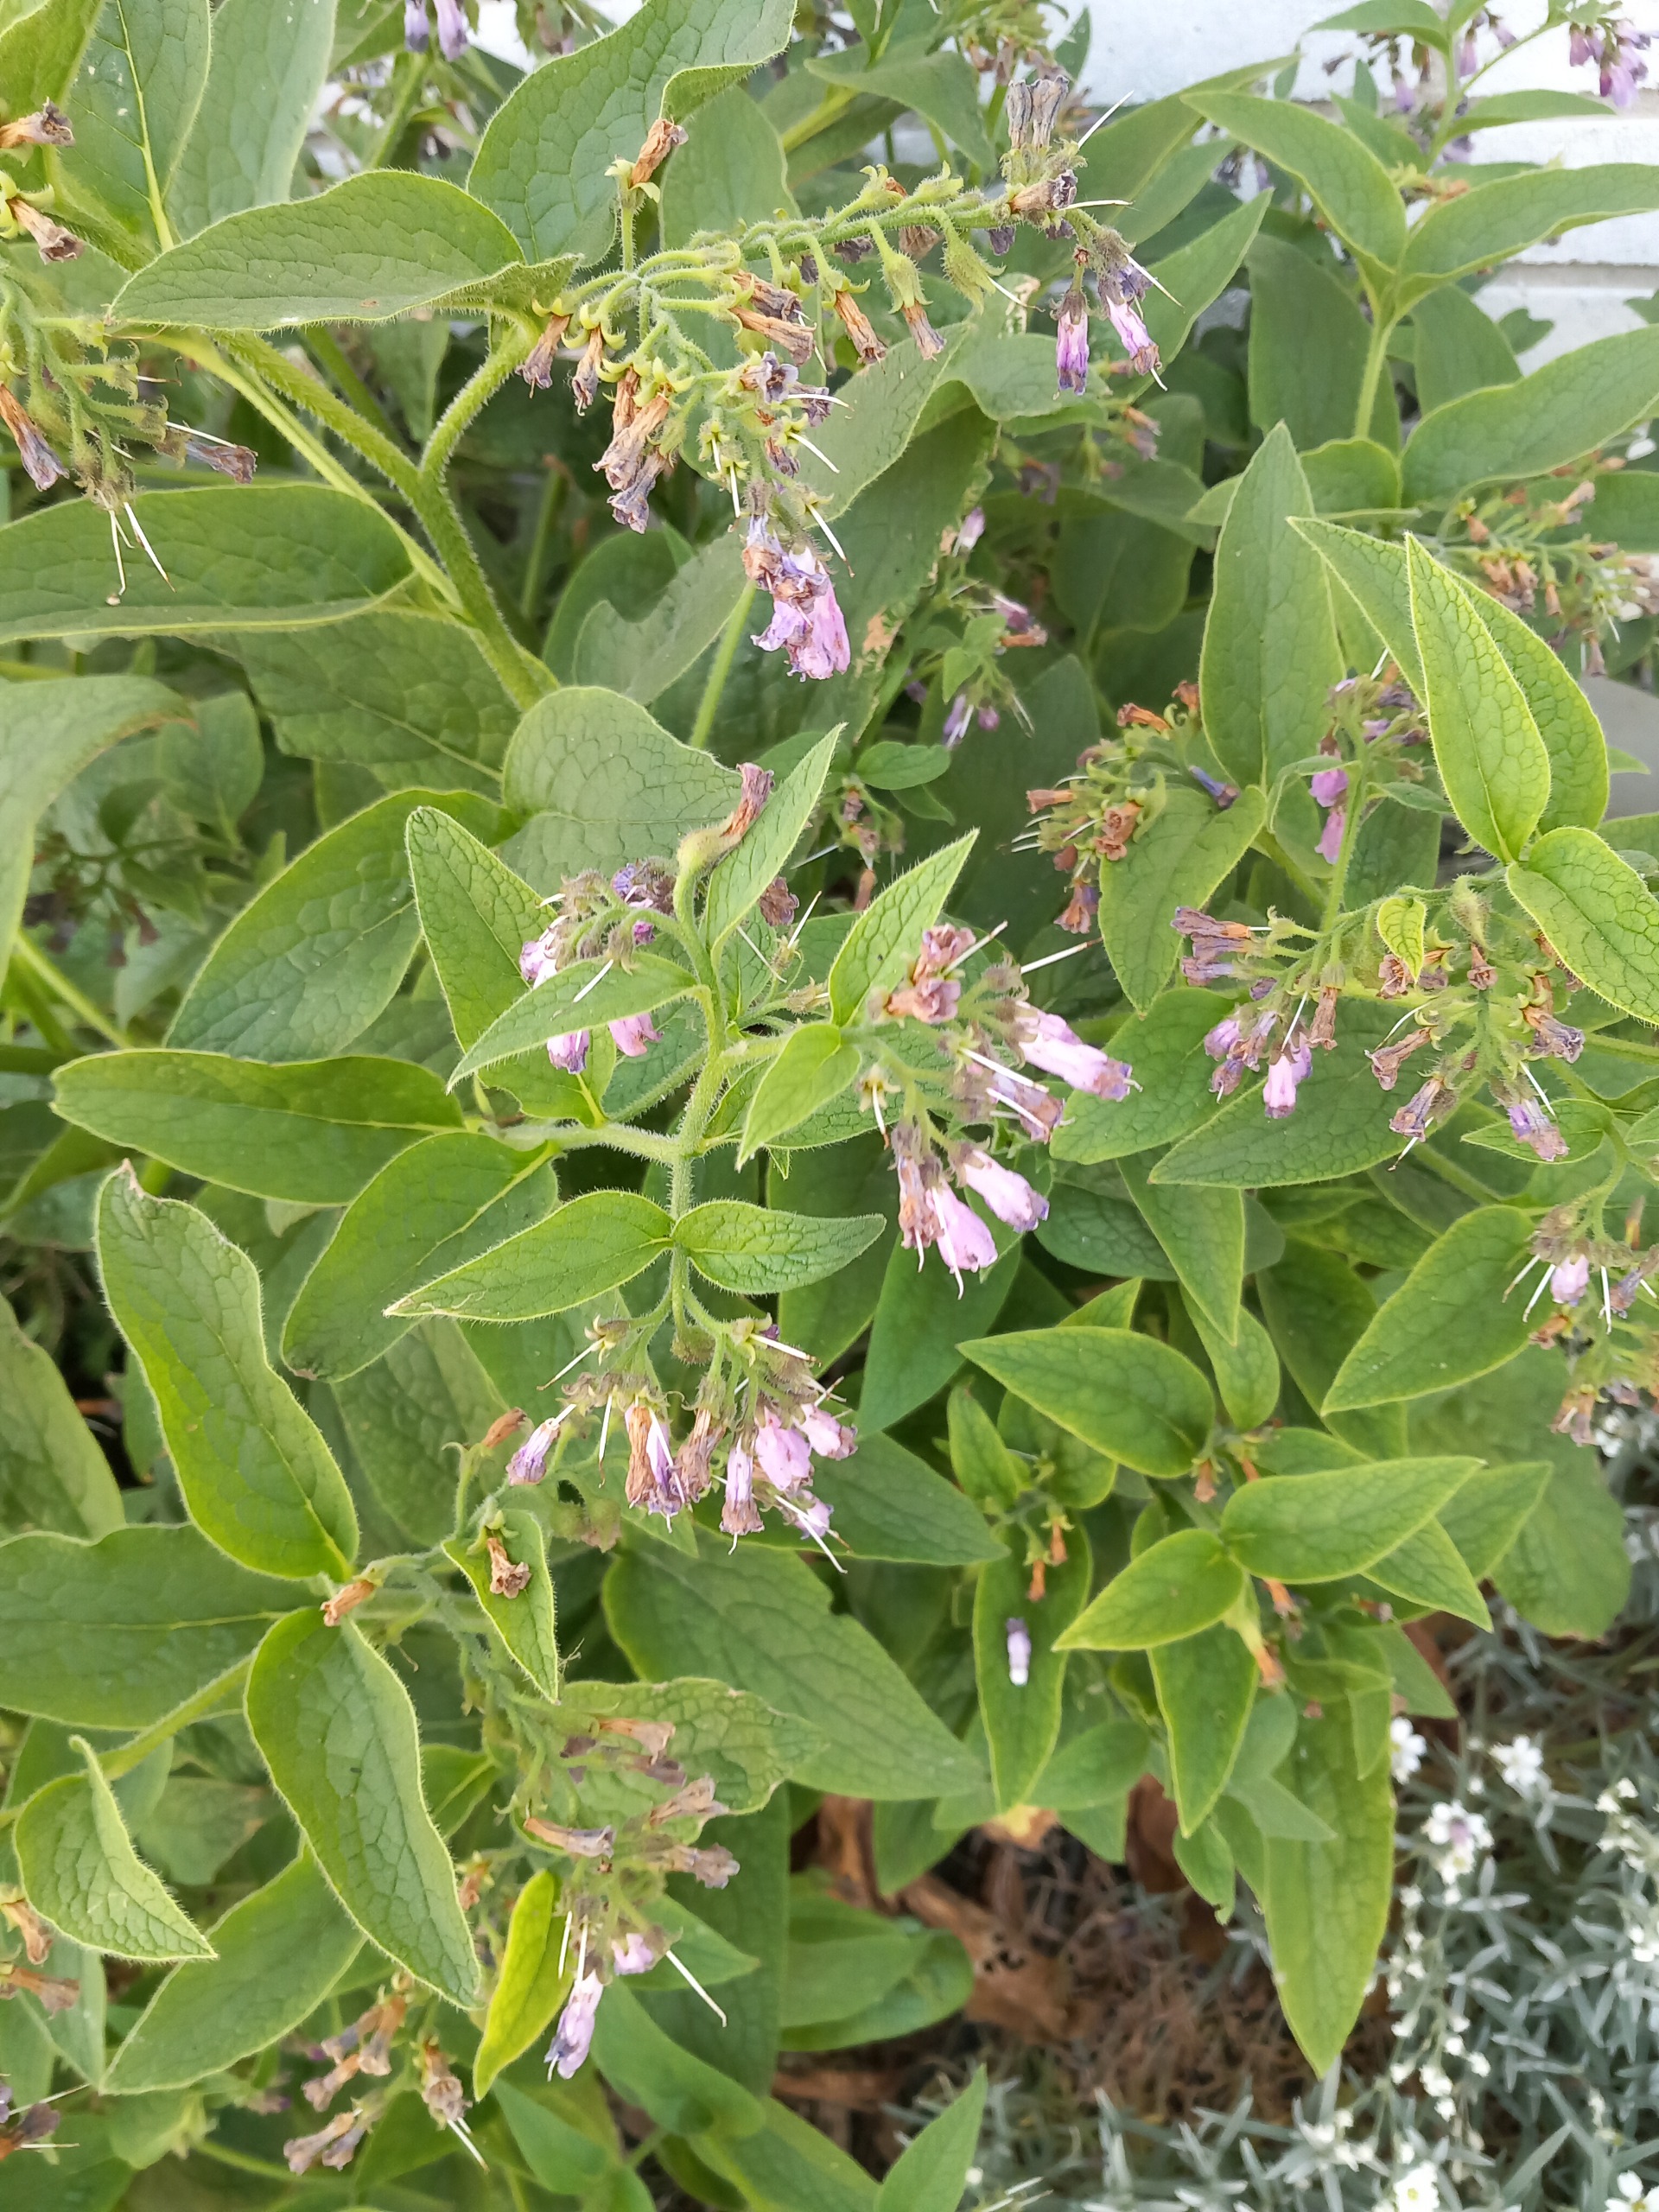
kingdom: Plantae
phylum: Tracheophyta
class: Magnoliopsida
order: Boraginales
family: Boraginaceae
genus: Symphytum
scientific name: Symphytum uplandicum
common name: Foder-kulsukker
